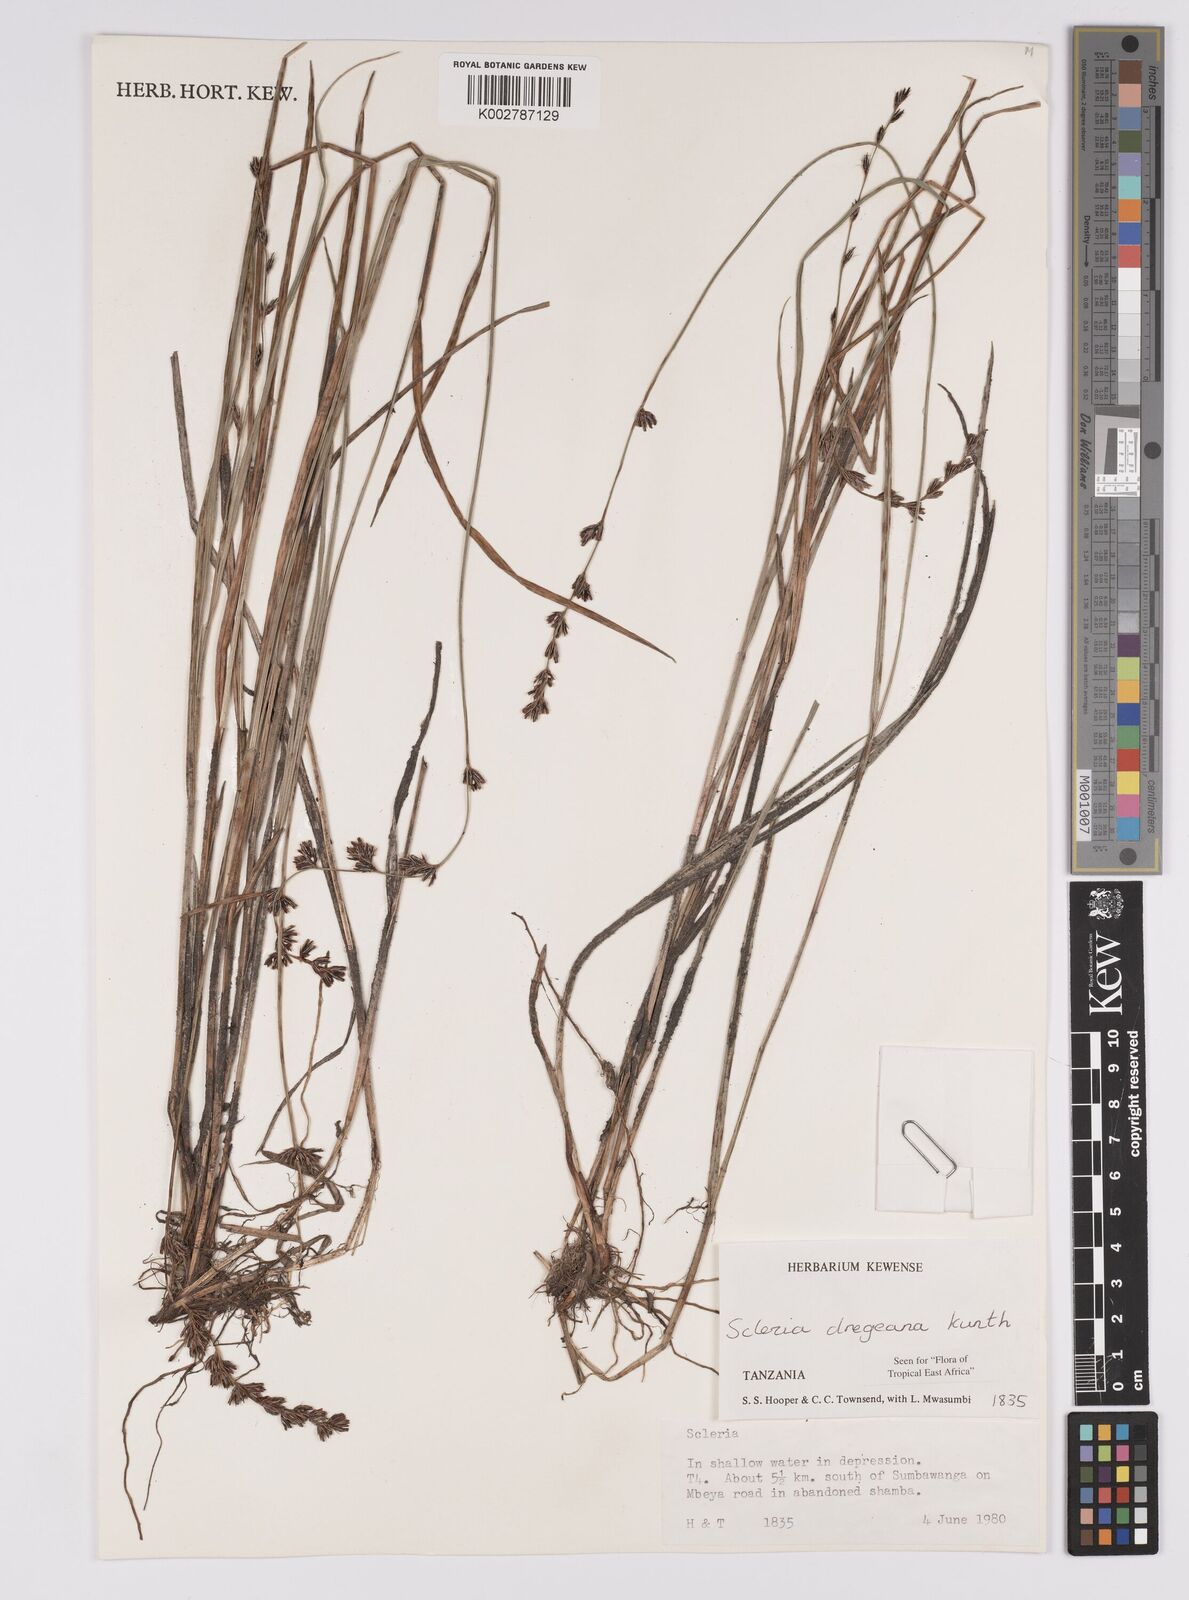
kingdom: Plantae
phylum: Tracheophyta
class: Liliopsida
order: Poales
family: Cyperaceae
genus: Scleria
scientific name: Scleria dregeana
